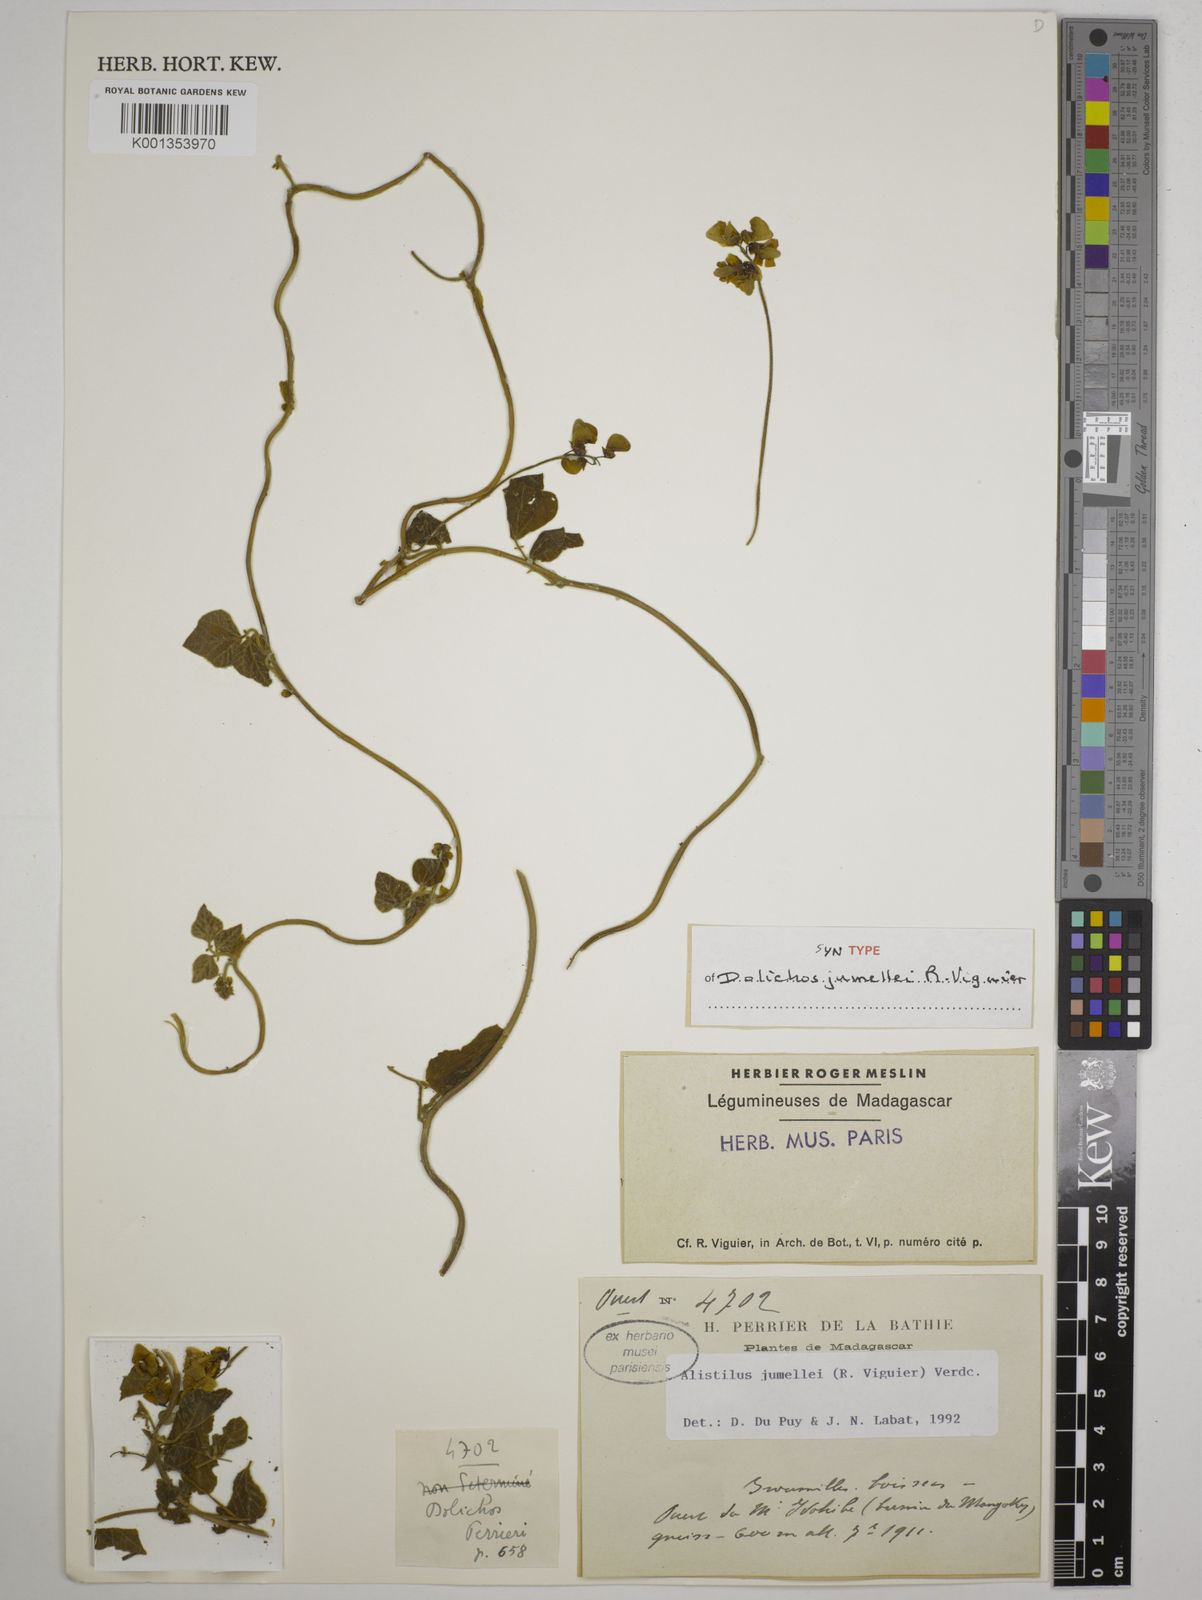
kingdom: Plantae
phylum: Tracheophyta
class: Magnoliopsida
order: Fabales
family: Fabaceae
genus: Alistilus
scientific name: Alistilus jumellei
